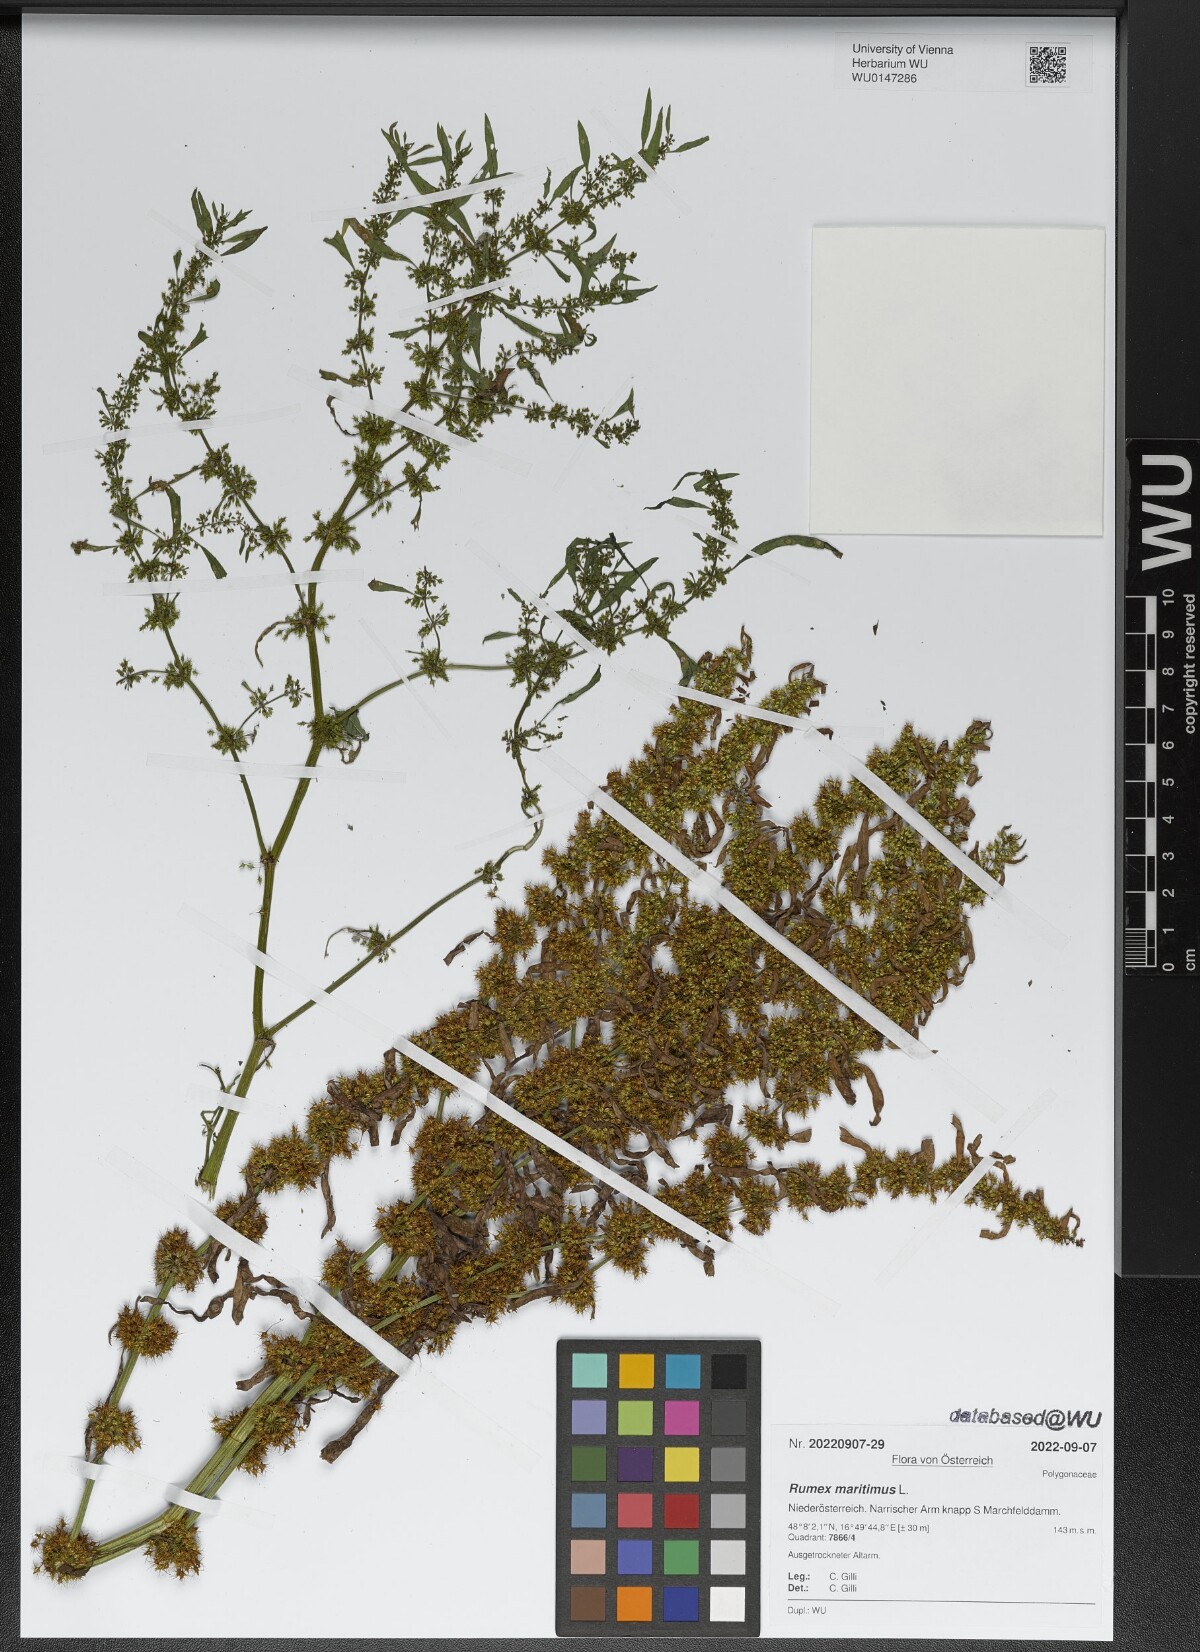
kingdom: Plantae
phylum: Tracheophyta
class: Magnoliopsida
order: Caryophyllales
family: Polygonaceae
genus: Rumex
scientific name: Rumex maritimus
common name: Golden dock
